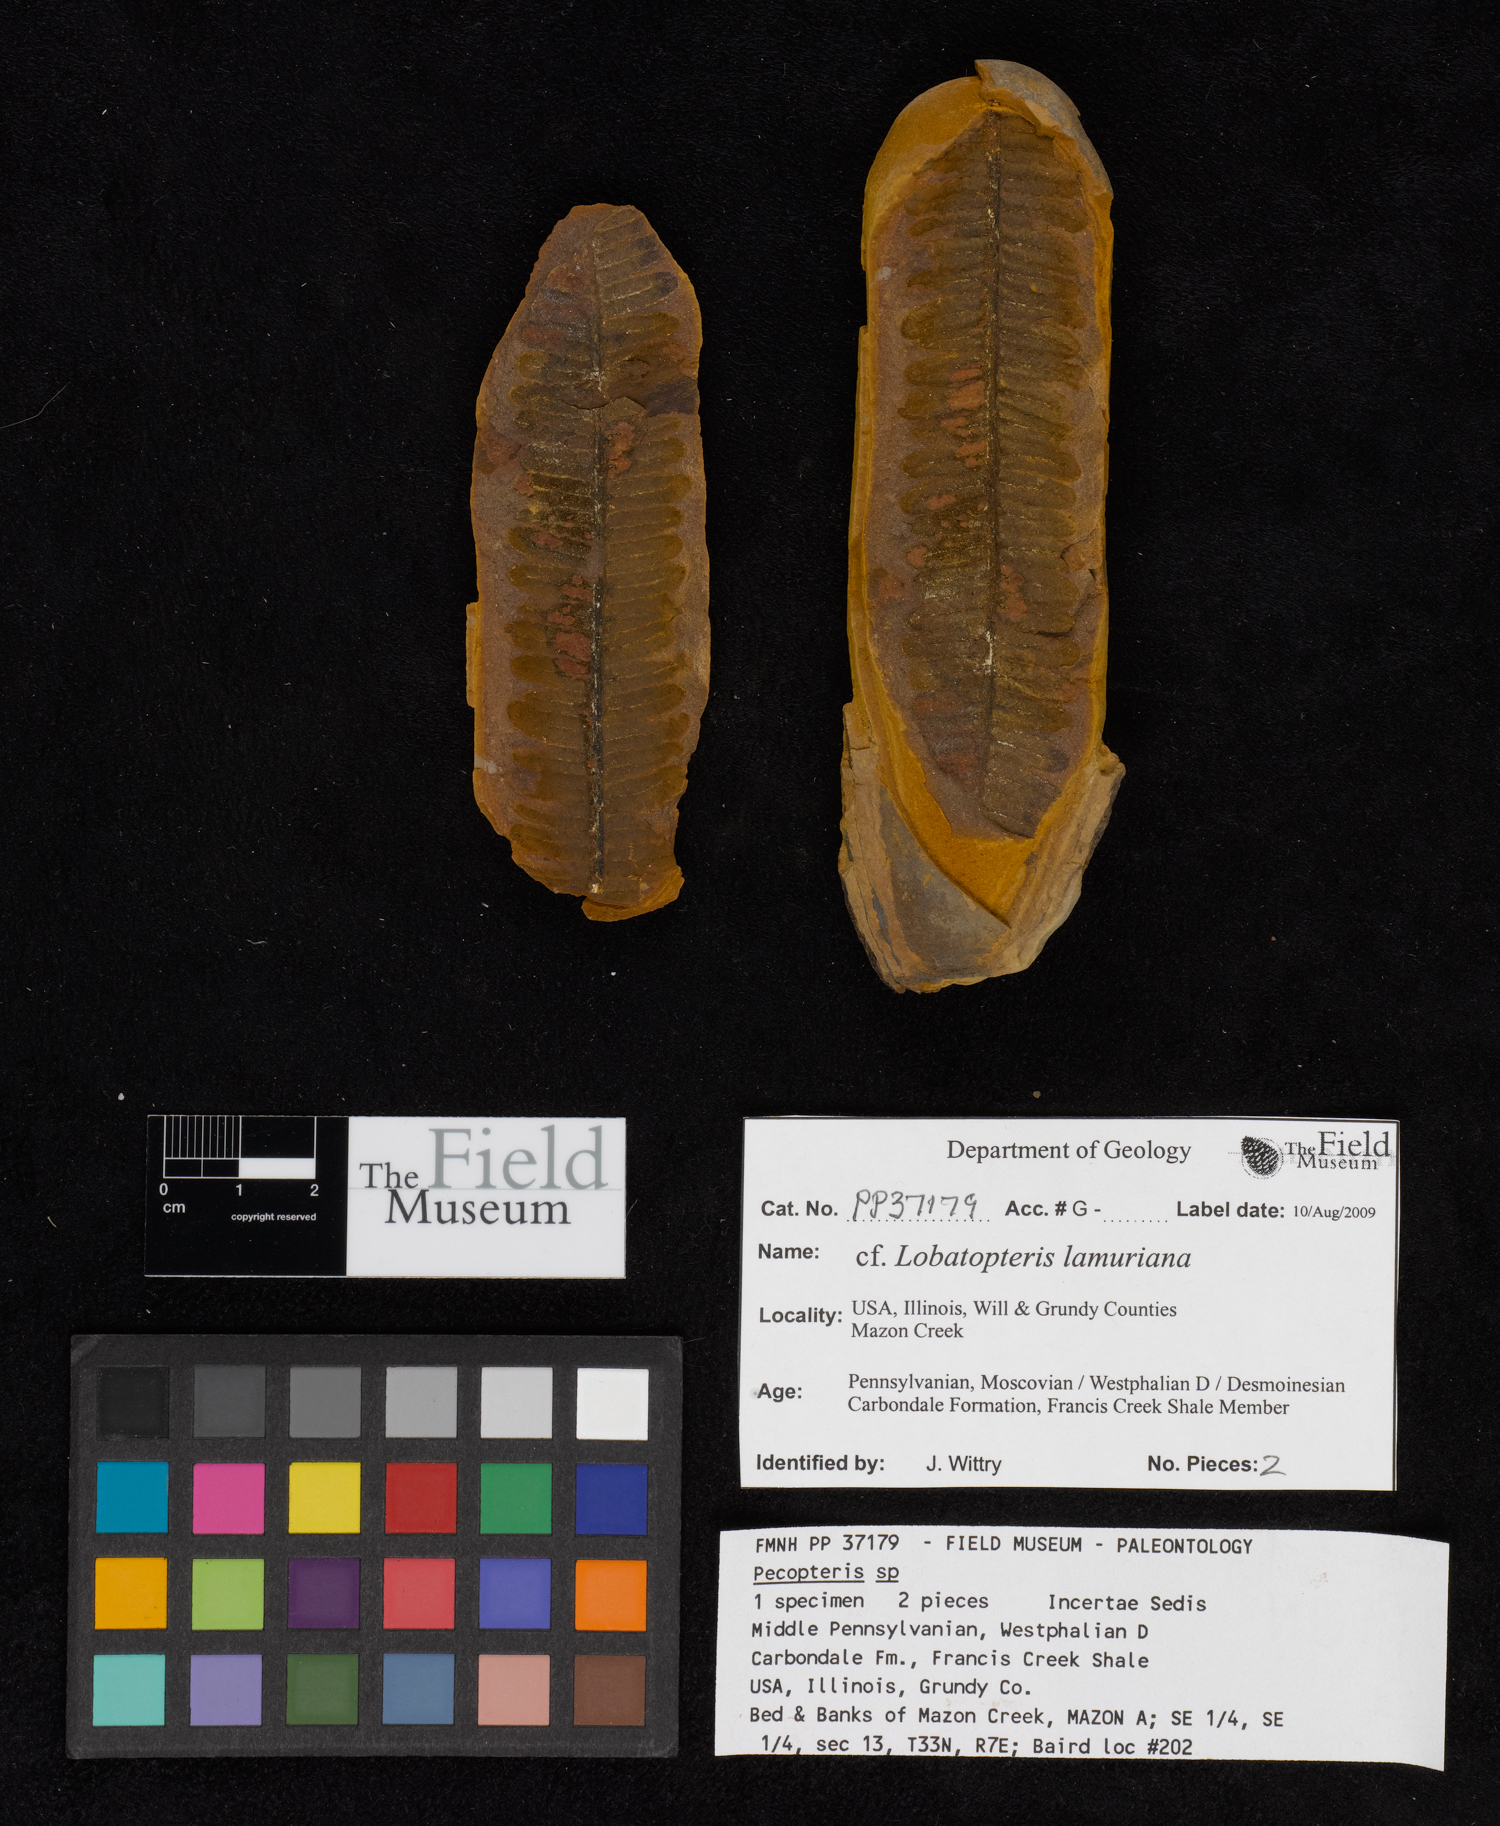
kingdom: Plantae
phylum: Tracheophyta
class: Polypodiopsida
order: Marattiales
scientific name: Marattiales
